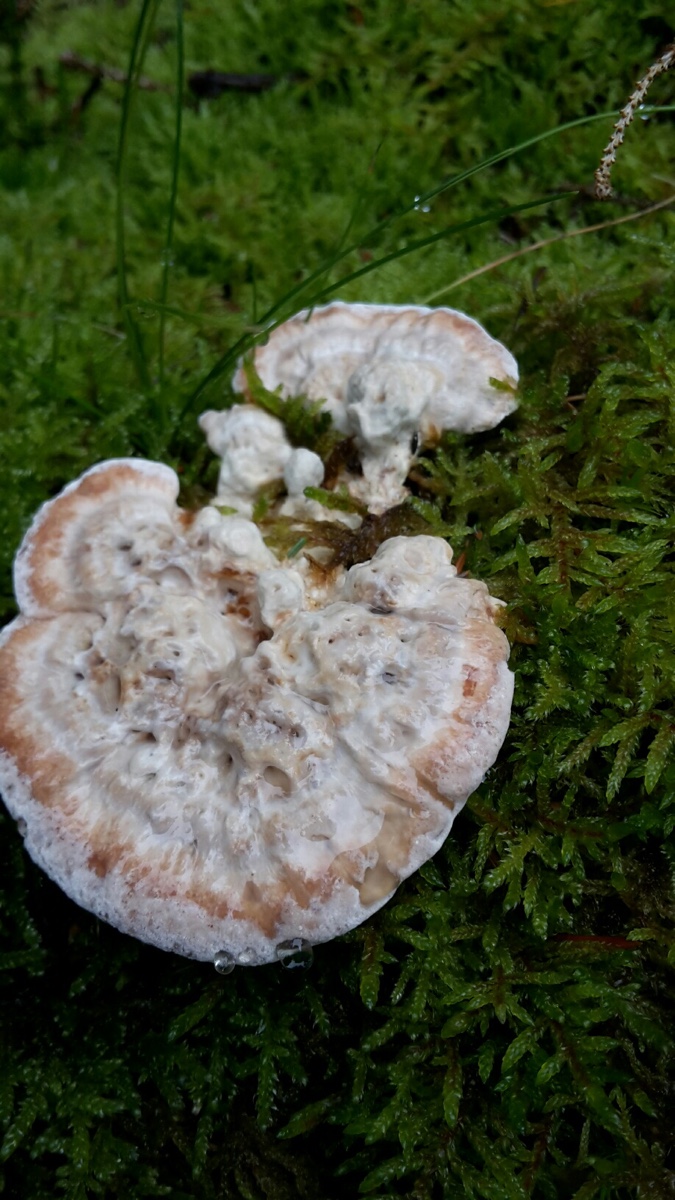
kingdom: Fungi
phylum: Basidiomycota
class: Agaricomycetes
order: Polyporales
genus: Calcipostia
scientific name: Calcipostia guttulata
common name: dråbe-kødporesvamp
